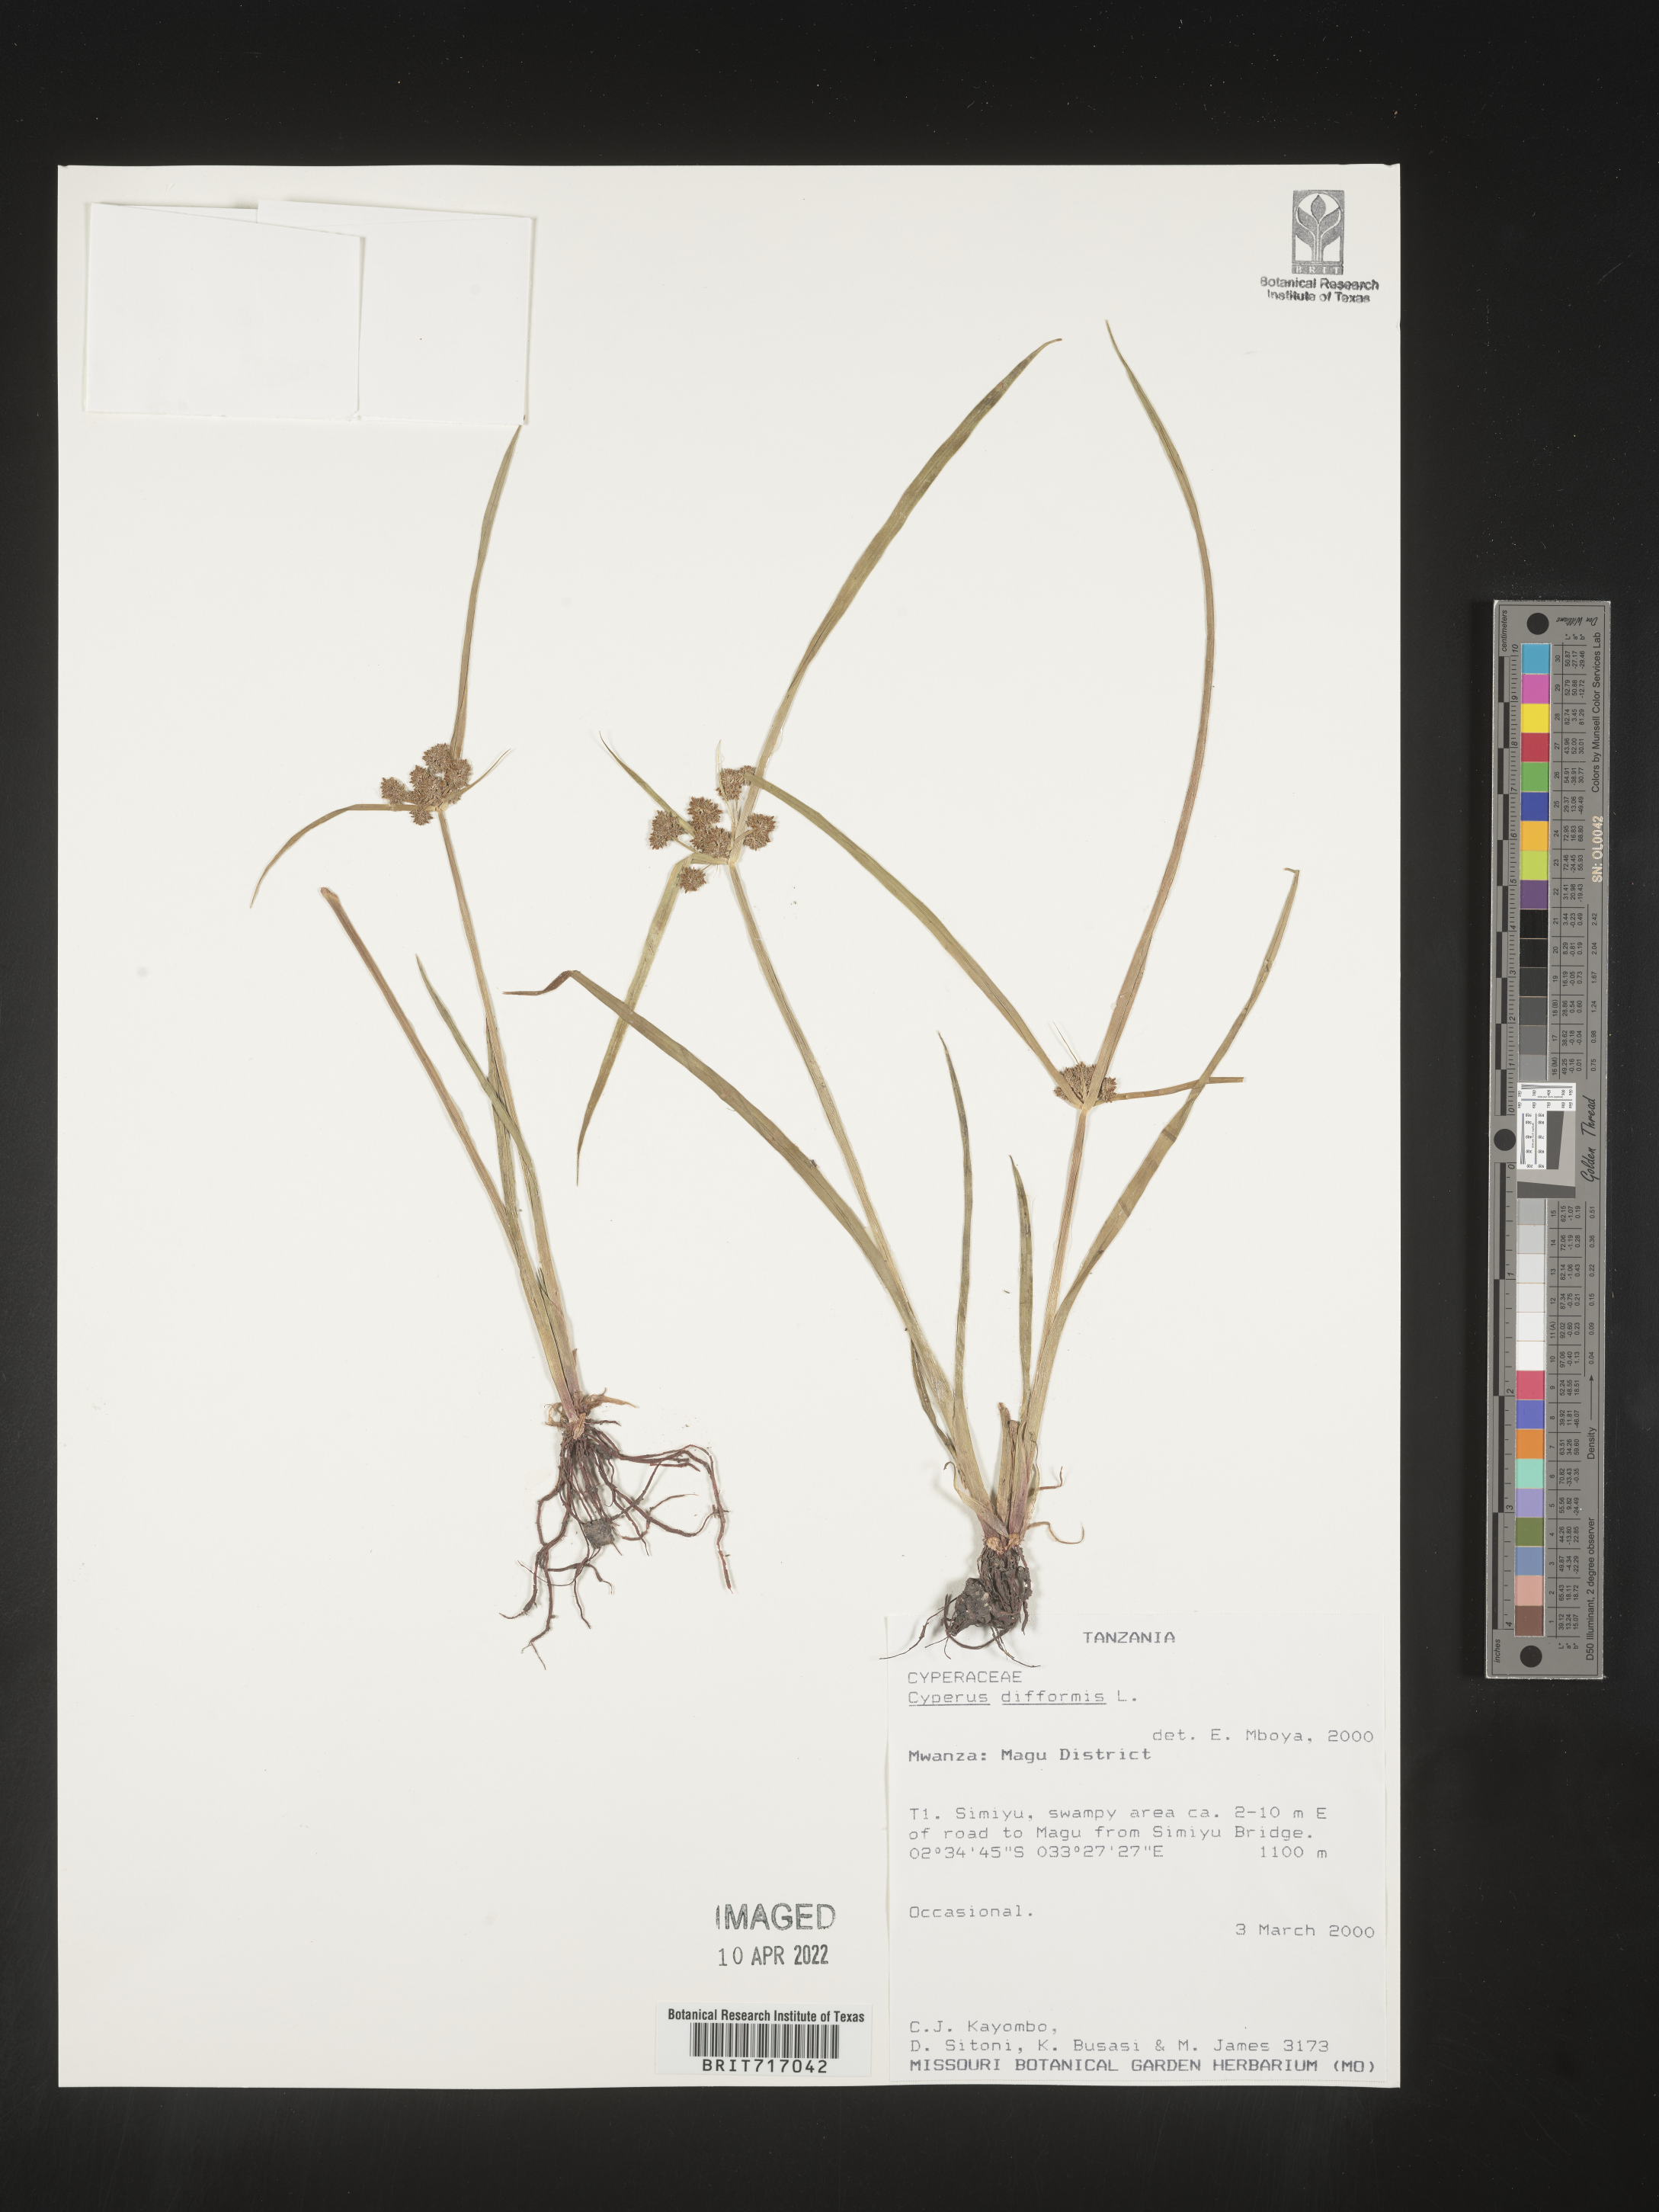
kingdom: Plantae
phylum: Tracheophyta
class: Liliopsida
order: Poales
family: Cyperaceae
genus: Cyperus
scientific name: Cyperus
